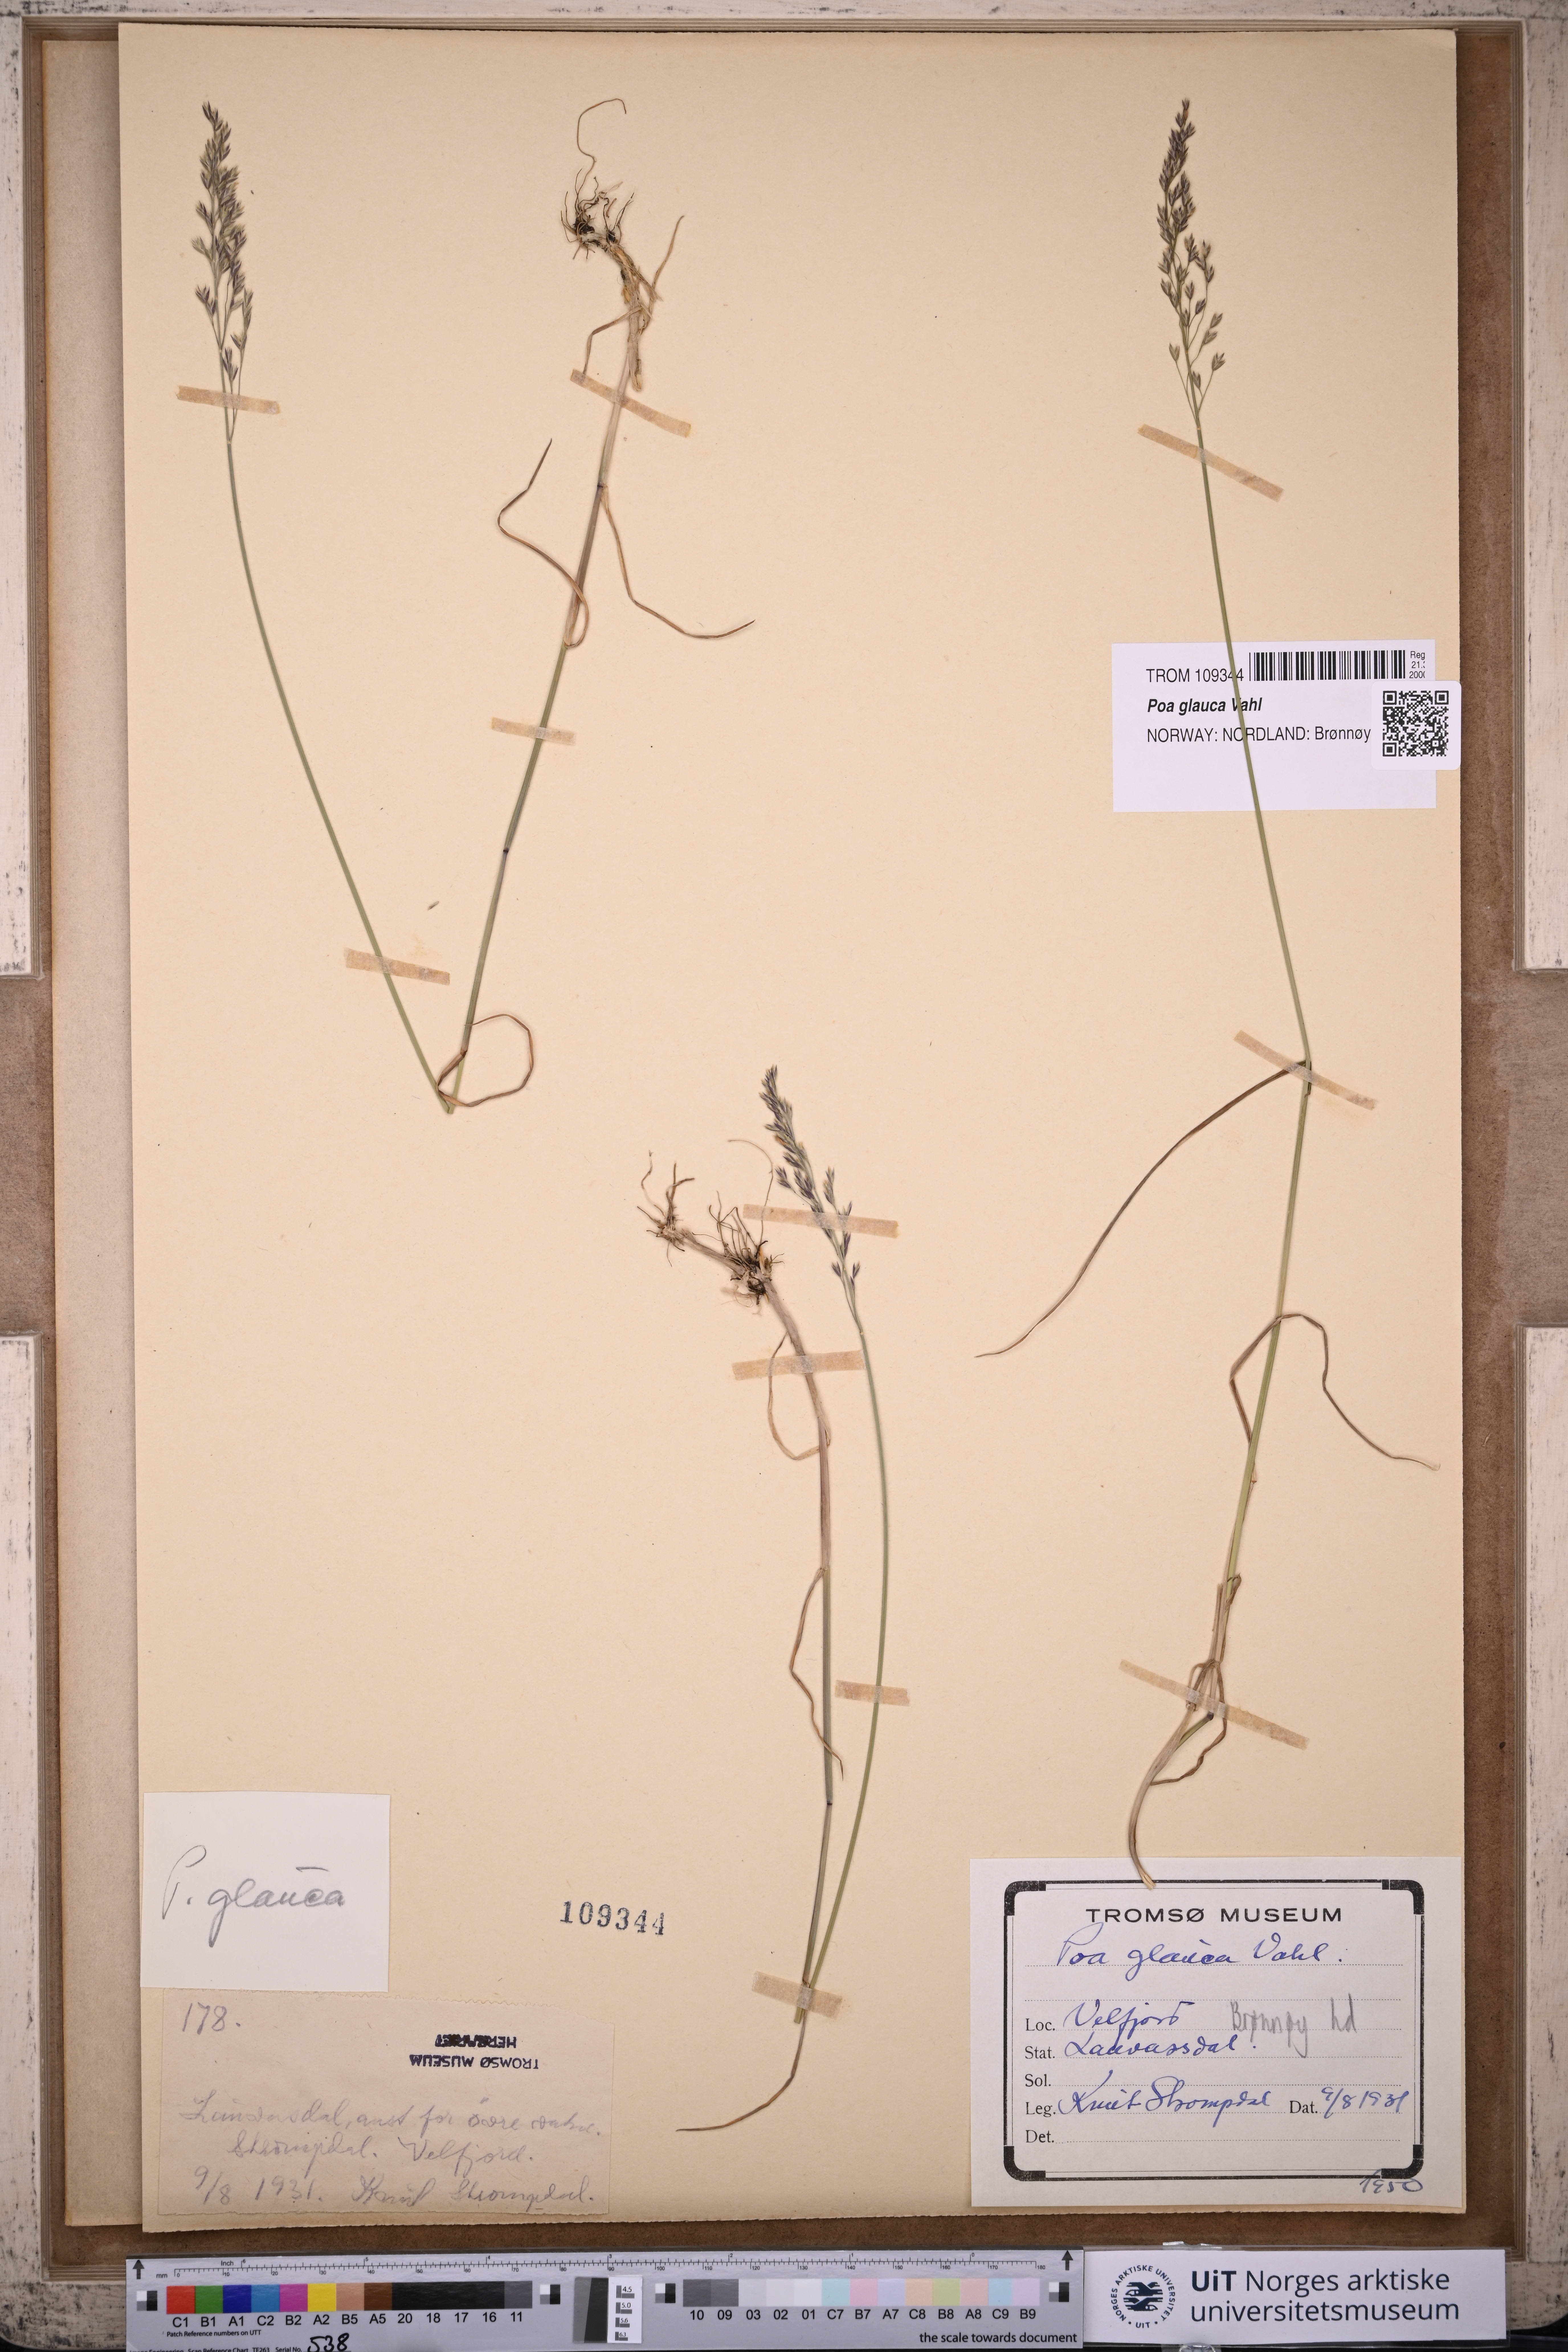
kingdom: Plantae
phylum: Tracheophyta
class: Liliopsida
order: Poales
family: Poaceae
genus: Poa
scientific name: Poa glauca
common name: Glaucous bluegrass
